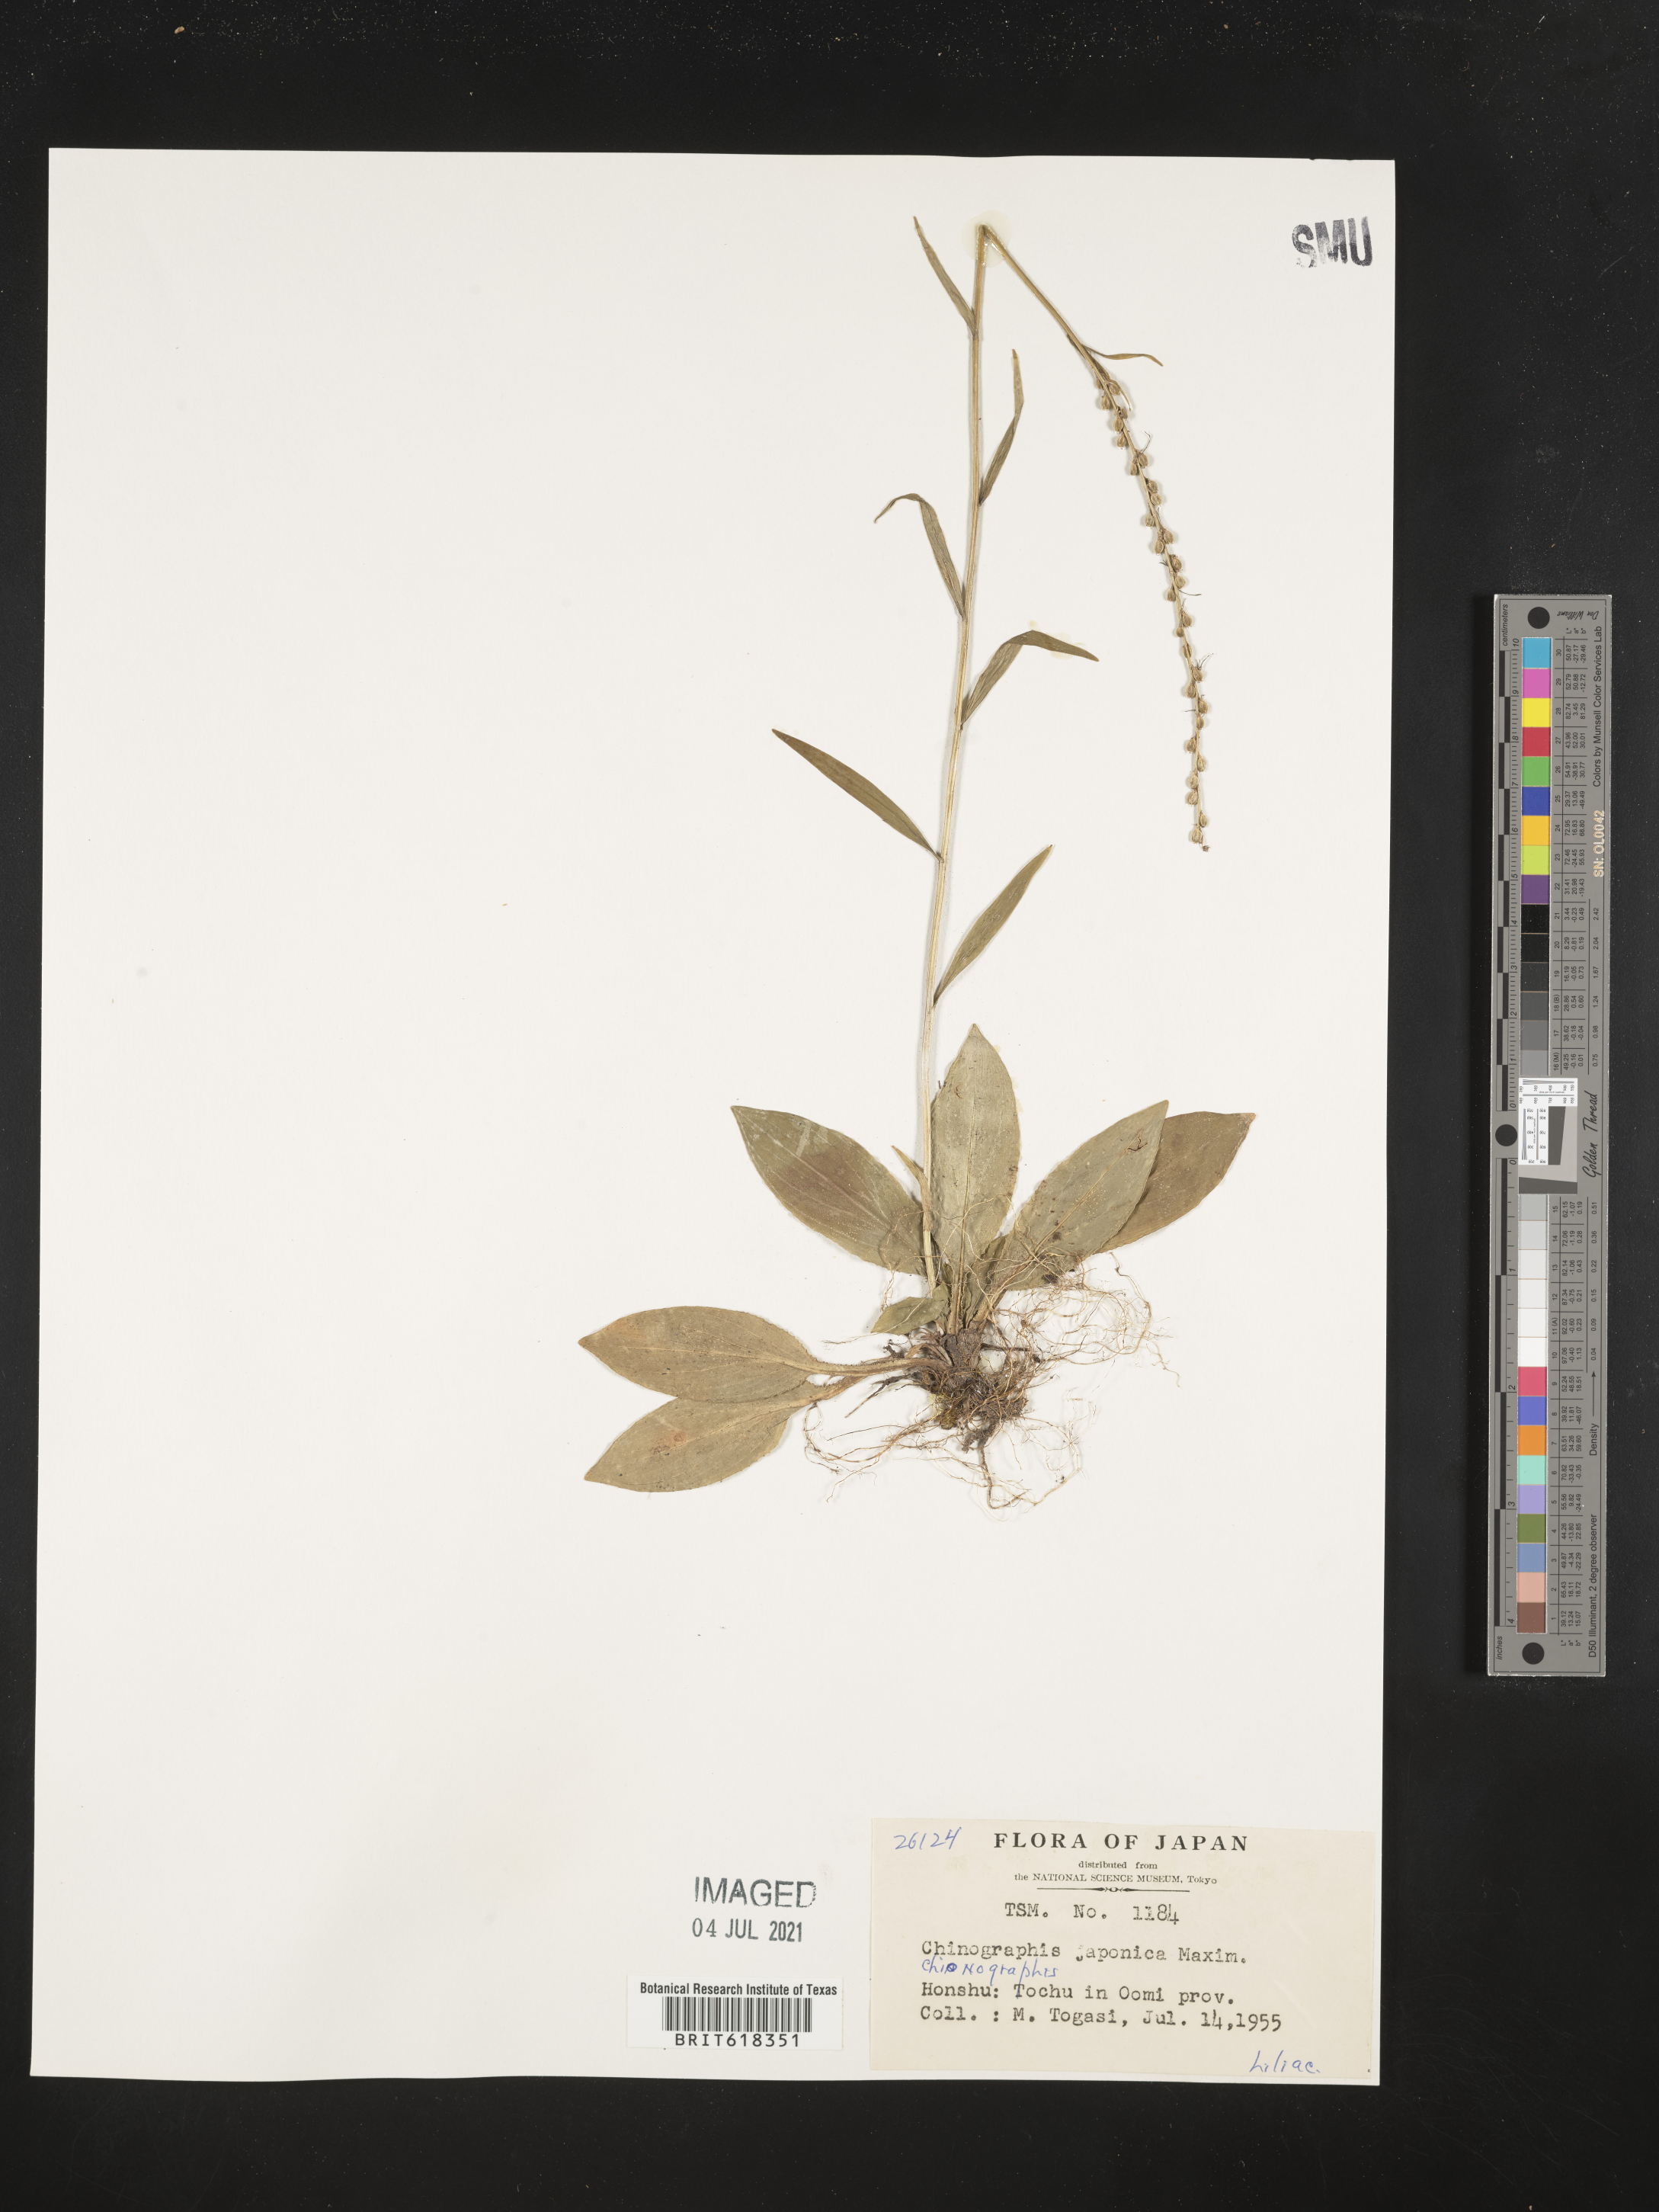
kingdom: Plantae
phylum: Tracheophyta
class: Liliopsida
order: Liliales
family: Melanthiaceae
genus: Chamaelirium
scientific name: Chamaelirium japonicum
